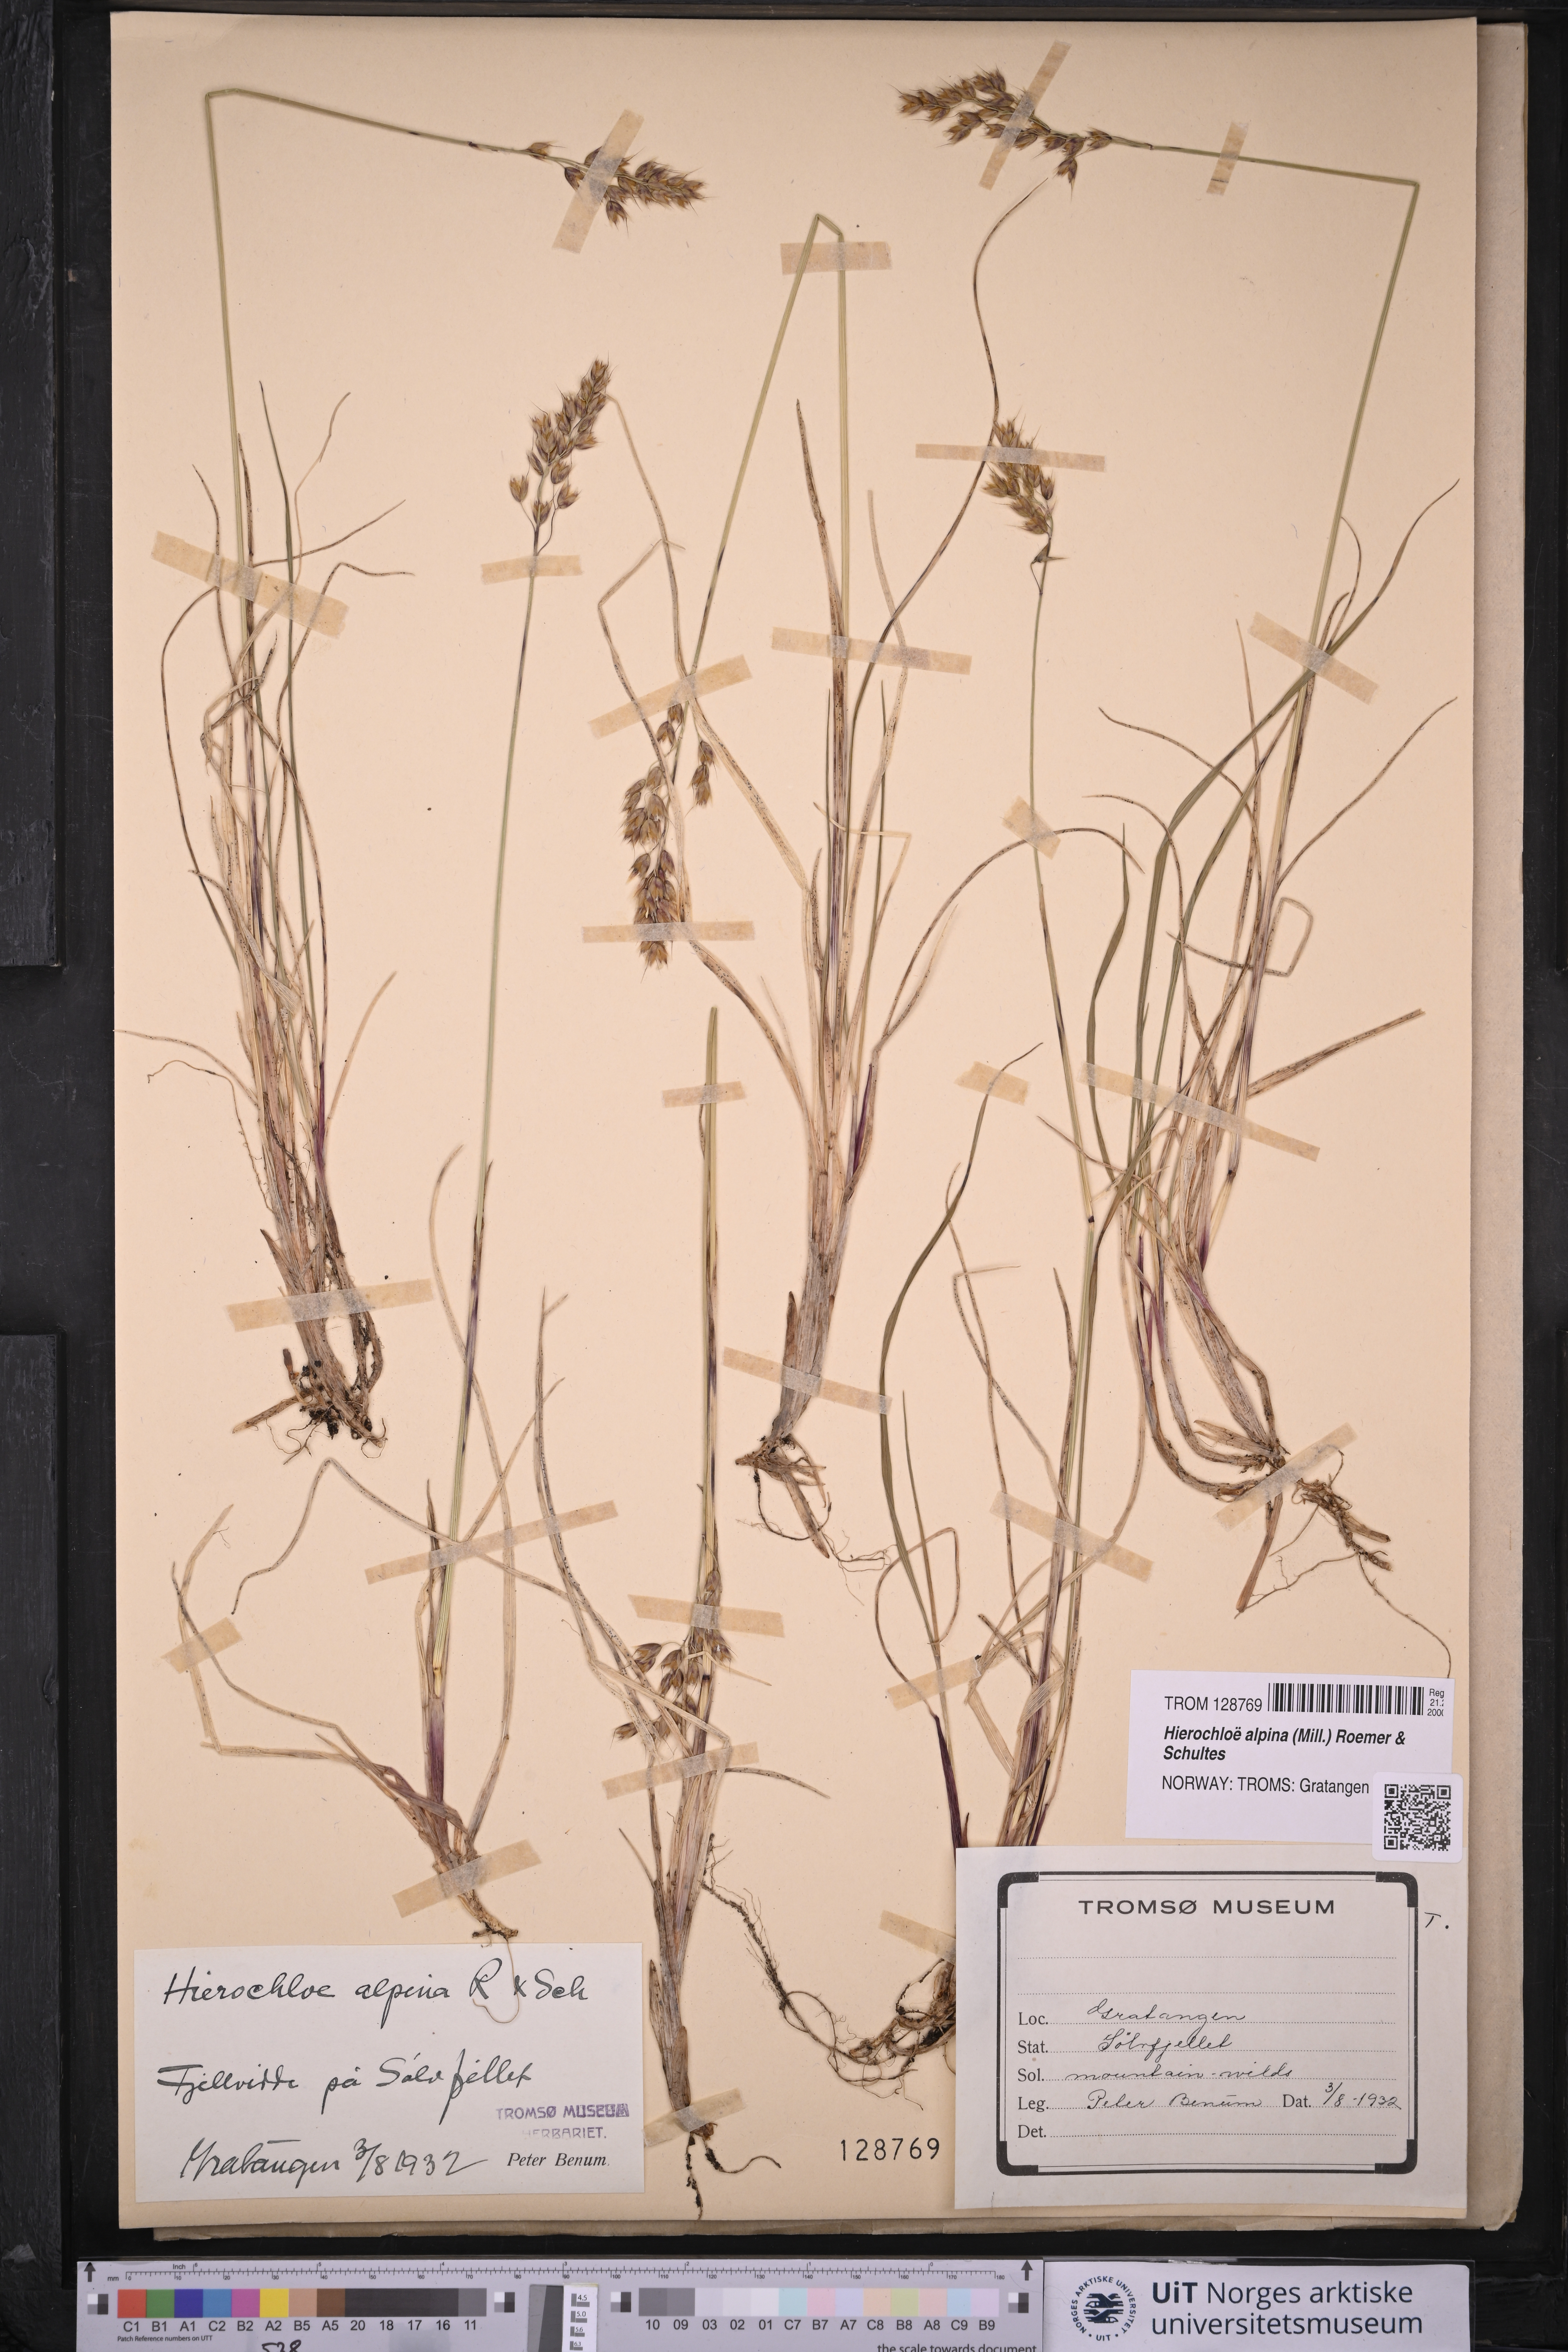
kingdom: Plantae
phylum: Tracheophyta
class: Liliopsida
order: Poales
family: Poaceae
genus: Anthoxanthum
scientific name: Anthoxanthum monticola
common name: Alpine sweetgrass
